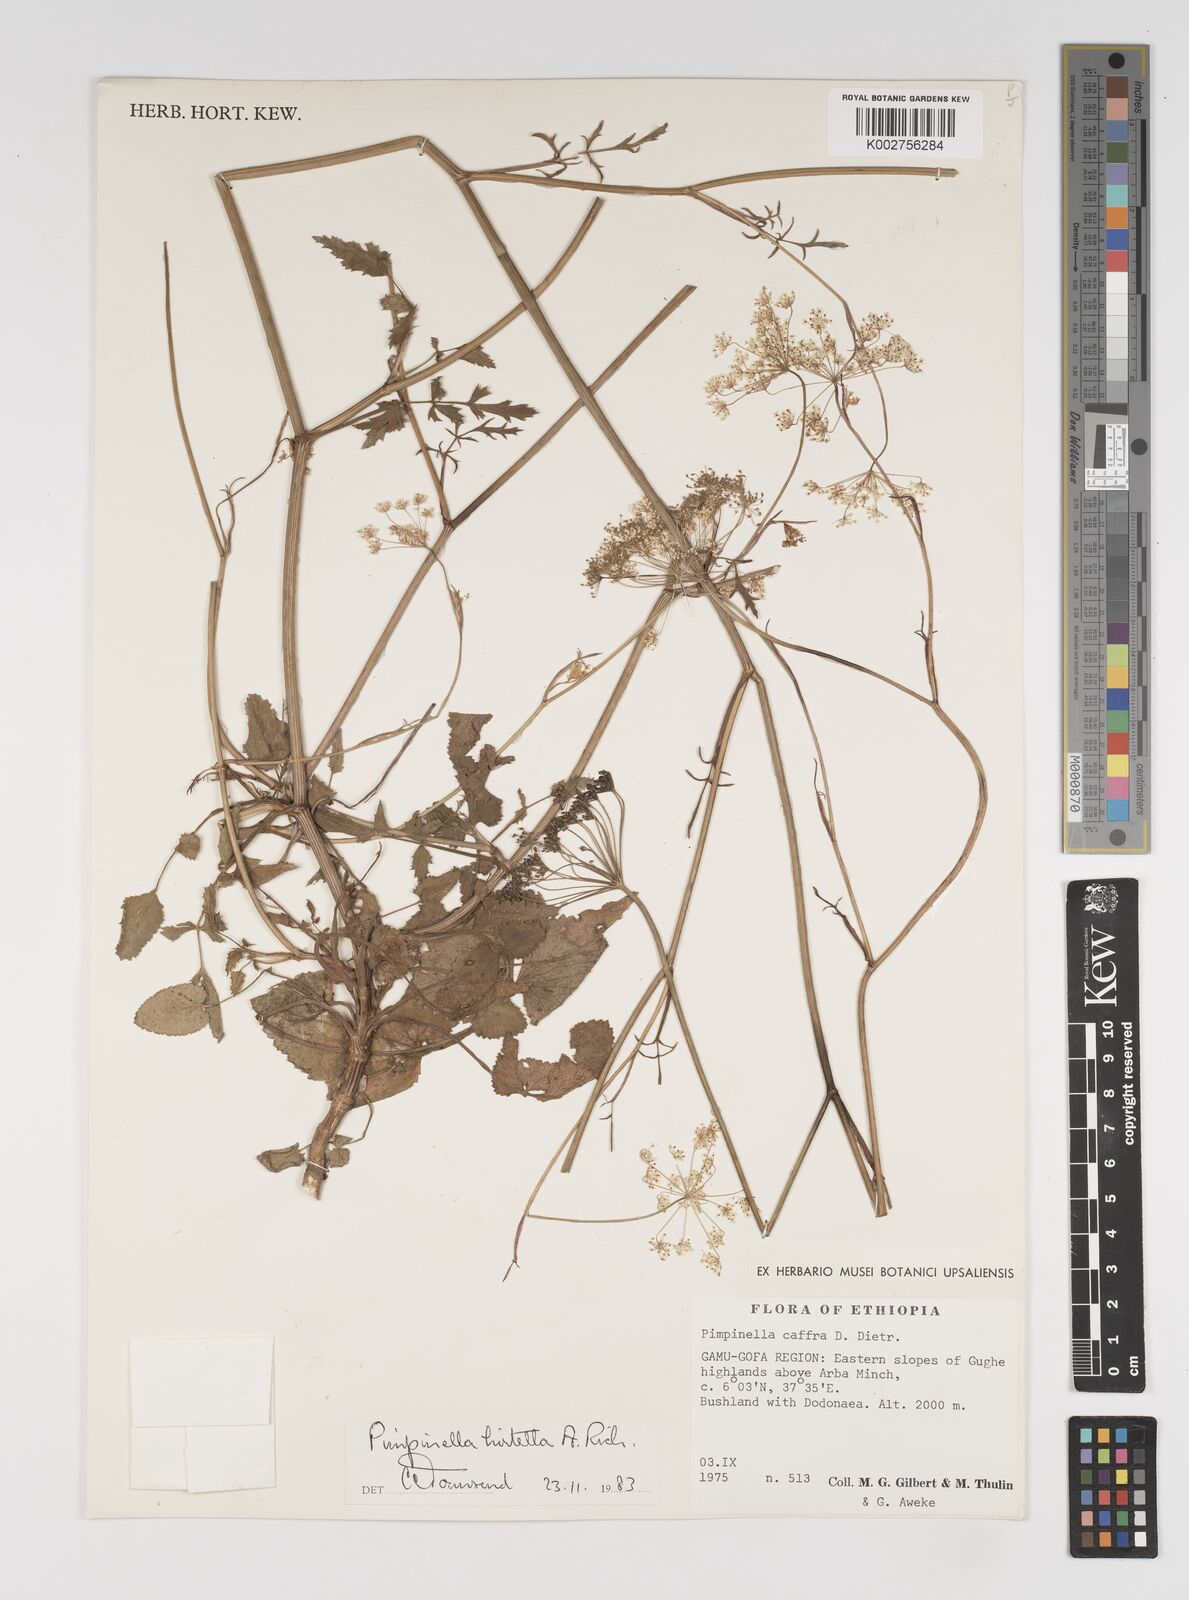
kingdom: Plantae
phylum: Tracheophyta
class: Magnoliopsida
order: Apiales
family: Apiaceae
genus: Pimpinella
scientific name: Pimpinella hirtella
